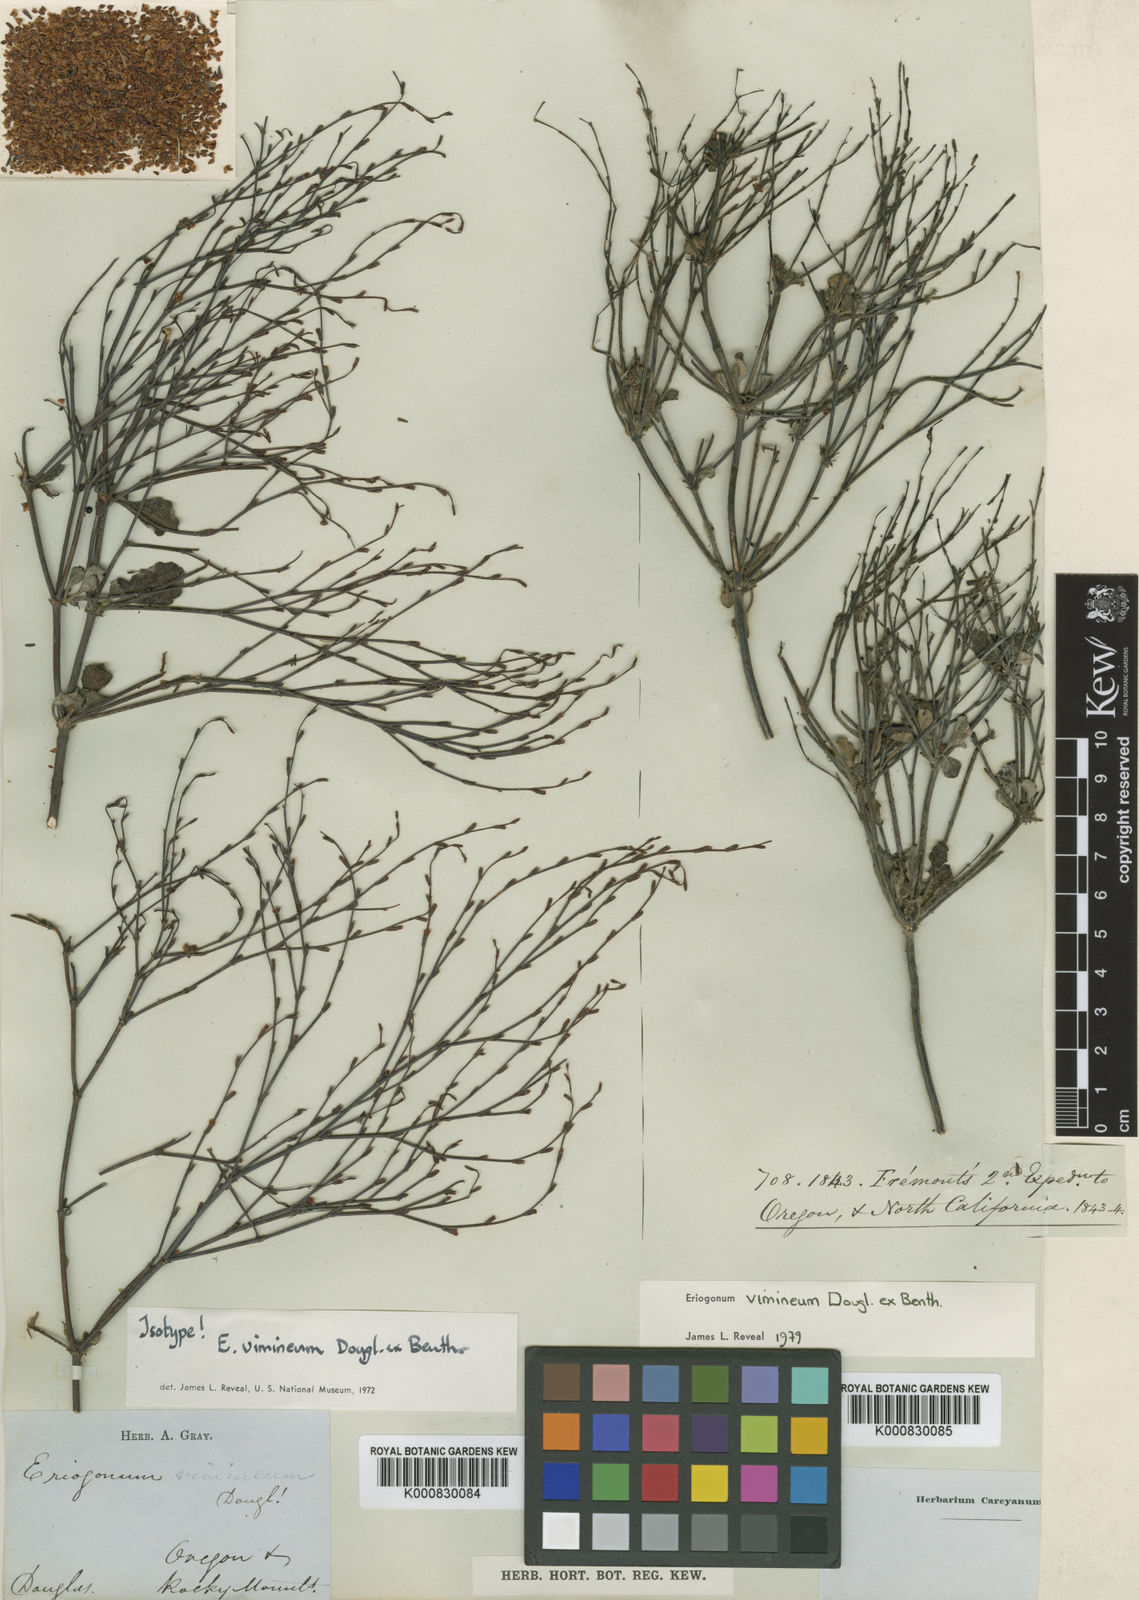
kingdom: Plantae
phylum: Tracheophyta
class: Magnoliopsida
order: Caryophyllales
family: Polygonaceae
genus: Eriogonum
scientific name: Eriogonum vimineum
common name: Wicker buckwheat
